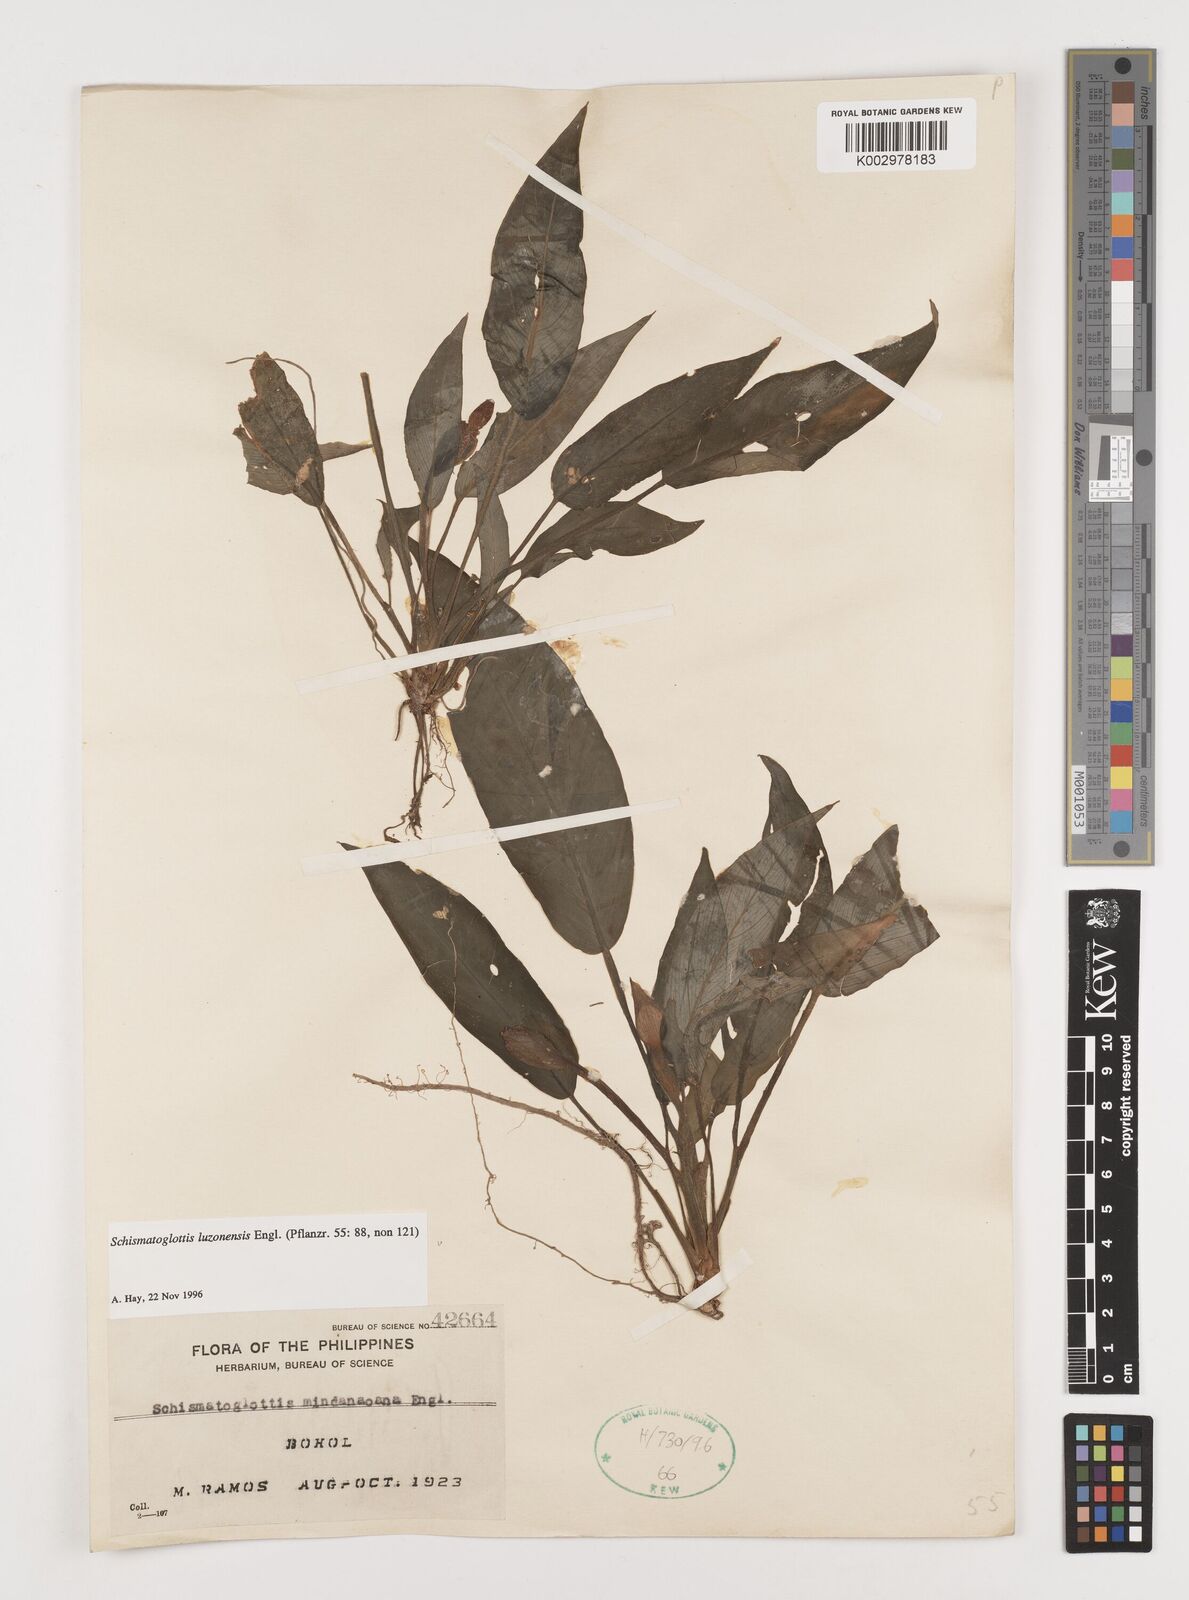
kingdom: Plantae
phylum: Tracheophyta
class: Liliopsida
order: Alismatales
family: Araceae
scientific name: Araceae
